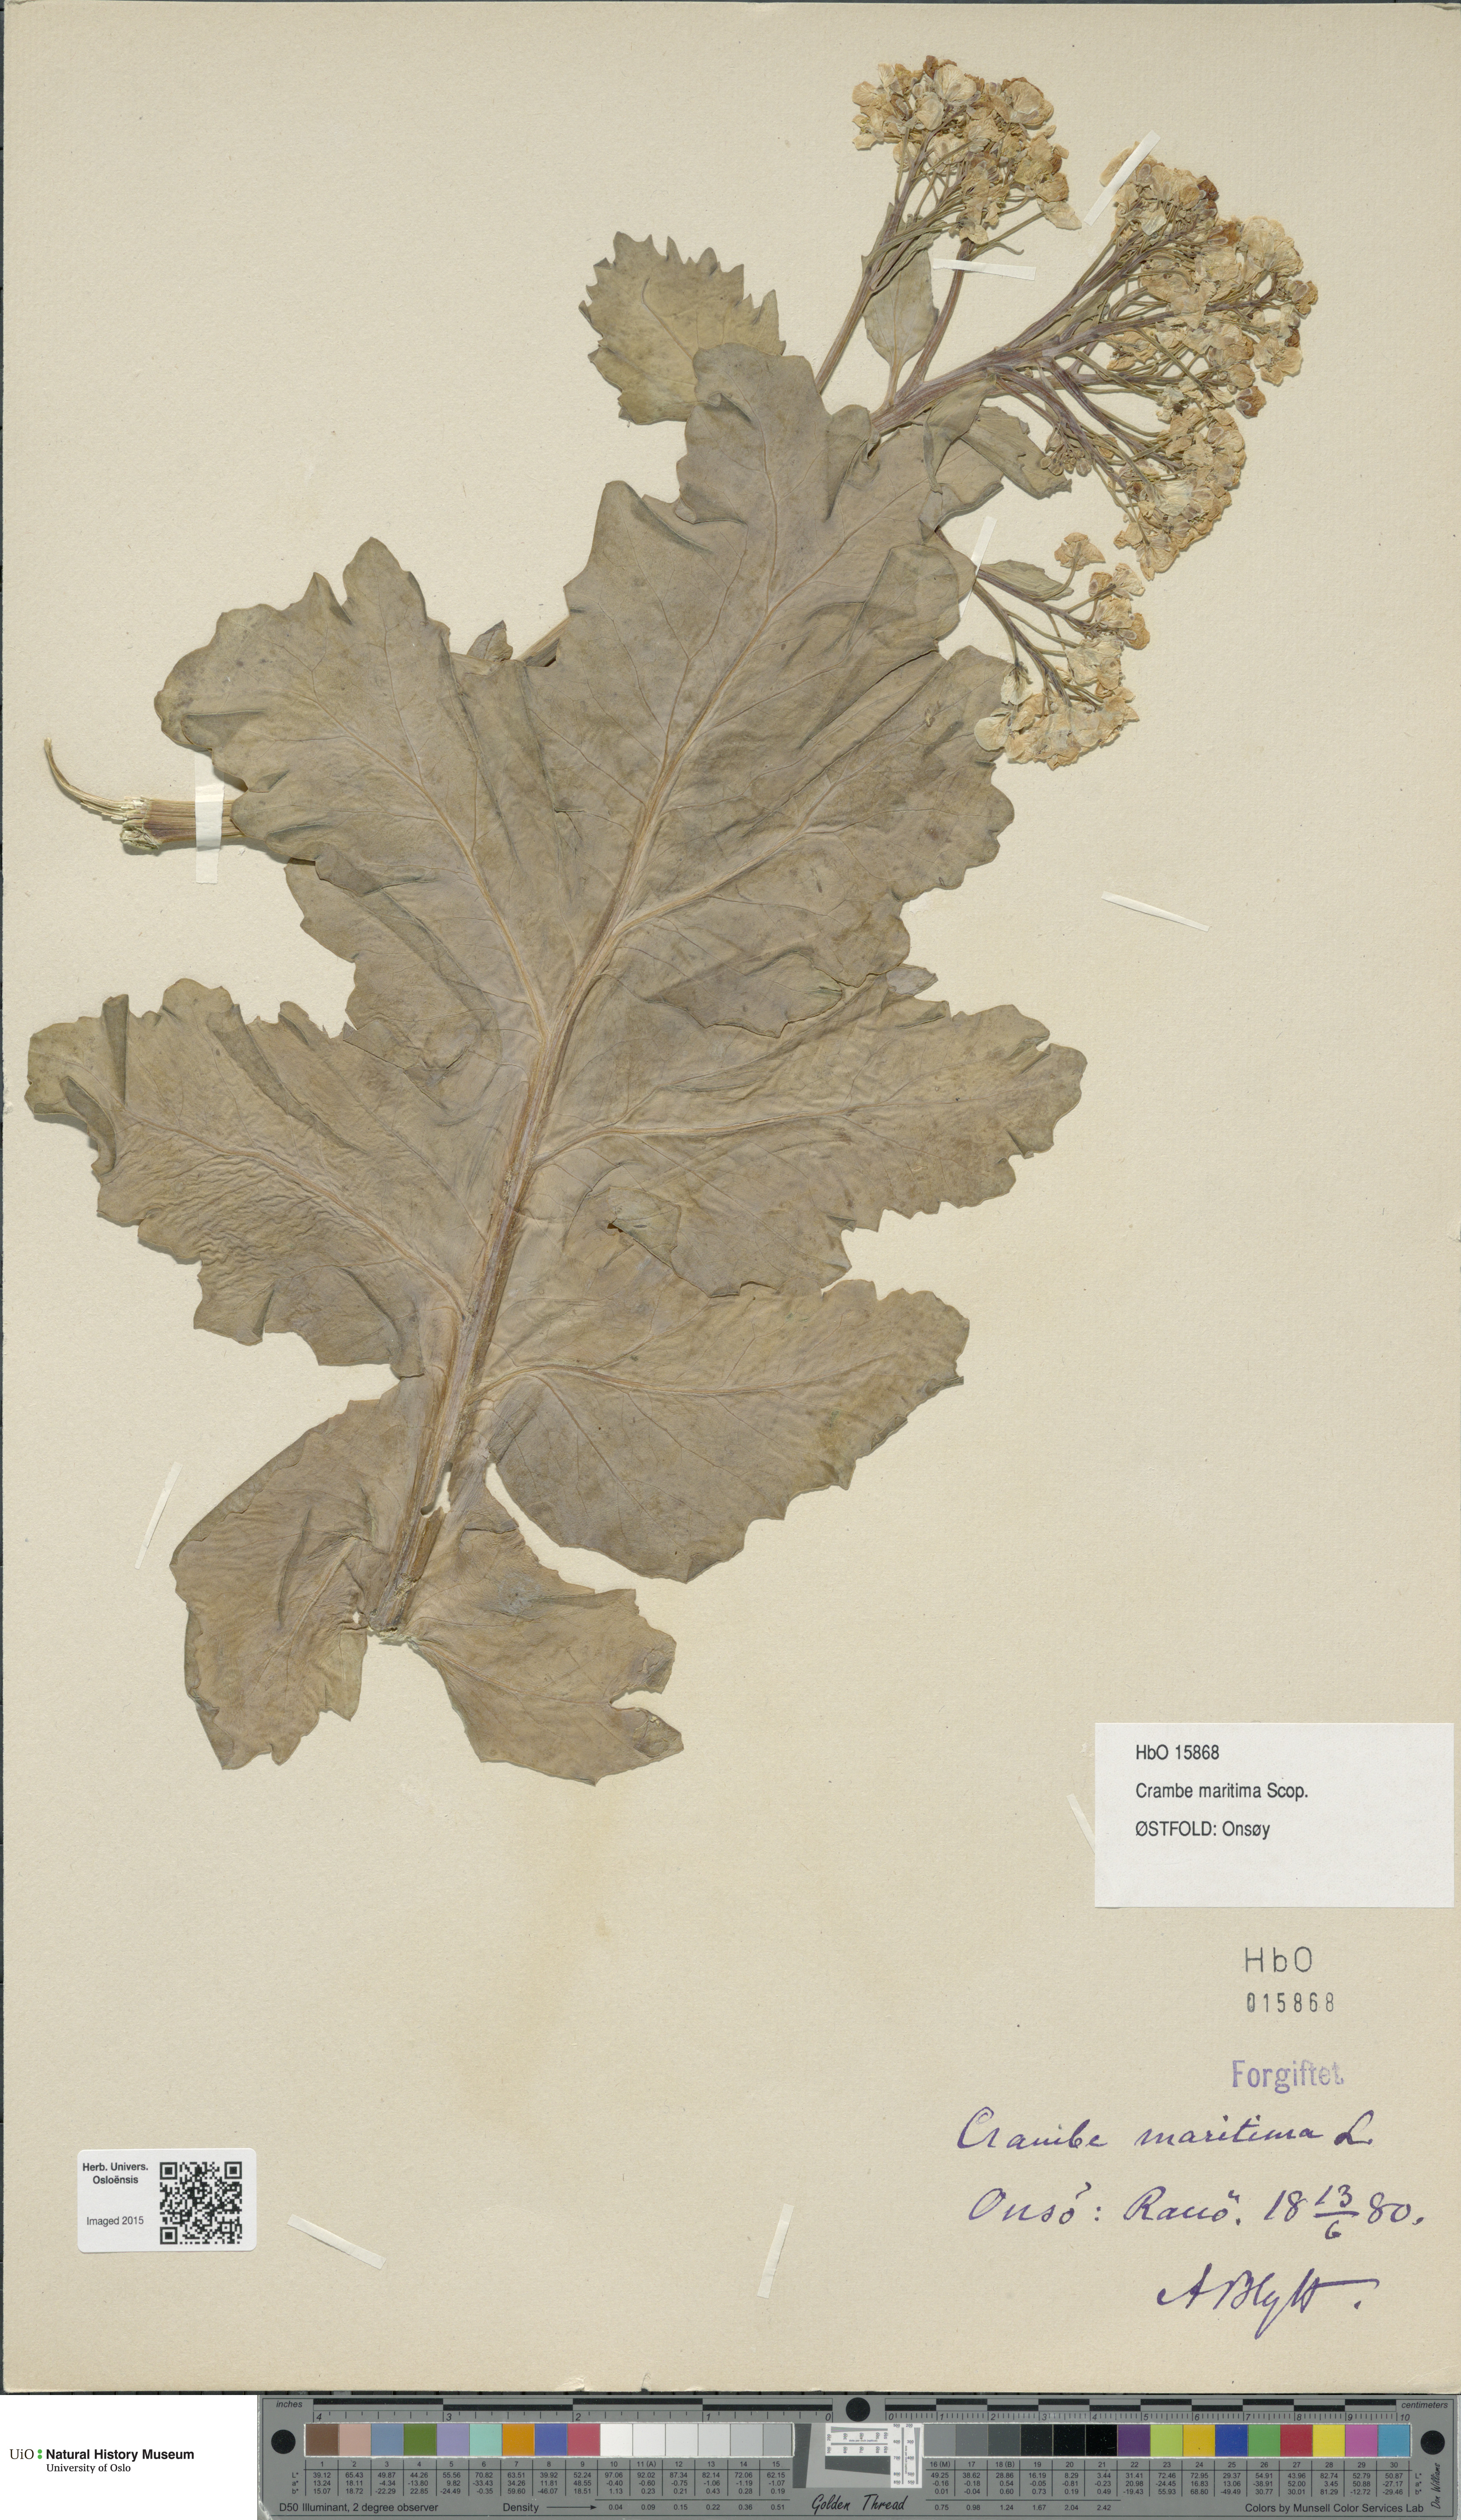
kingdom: Plantae
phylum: Tracheophyta
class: Magnoliopsida
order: Brassicales
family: Brassicaceae
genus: Crambe
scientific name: Crambe maritima
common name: Sea-kale
